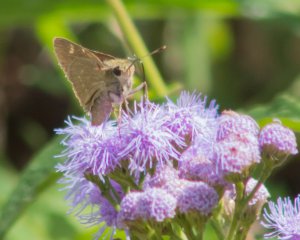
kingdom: Animalia
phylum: Arthropoda
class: Insecta
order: Lepidoptera
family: Hesperiidae
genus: Polites
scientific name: Polites
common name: Crossline Skipper
